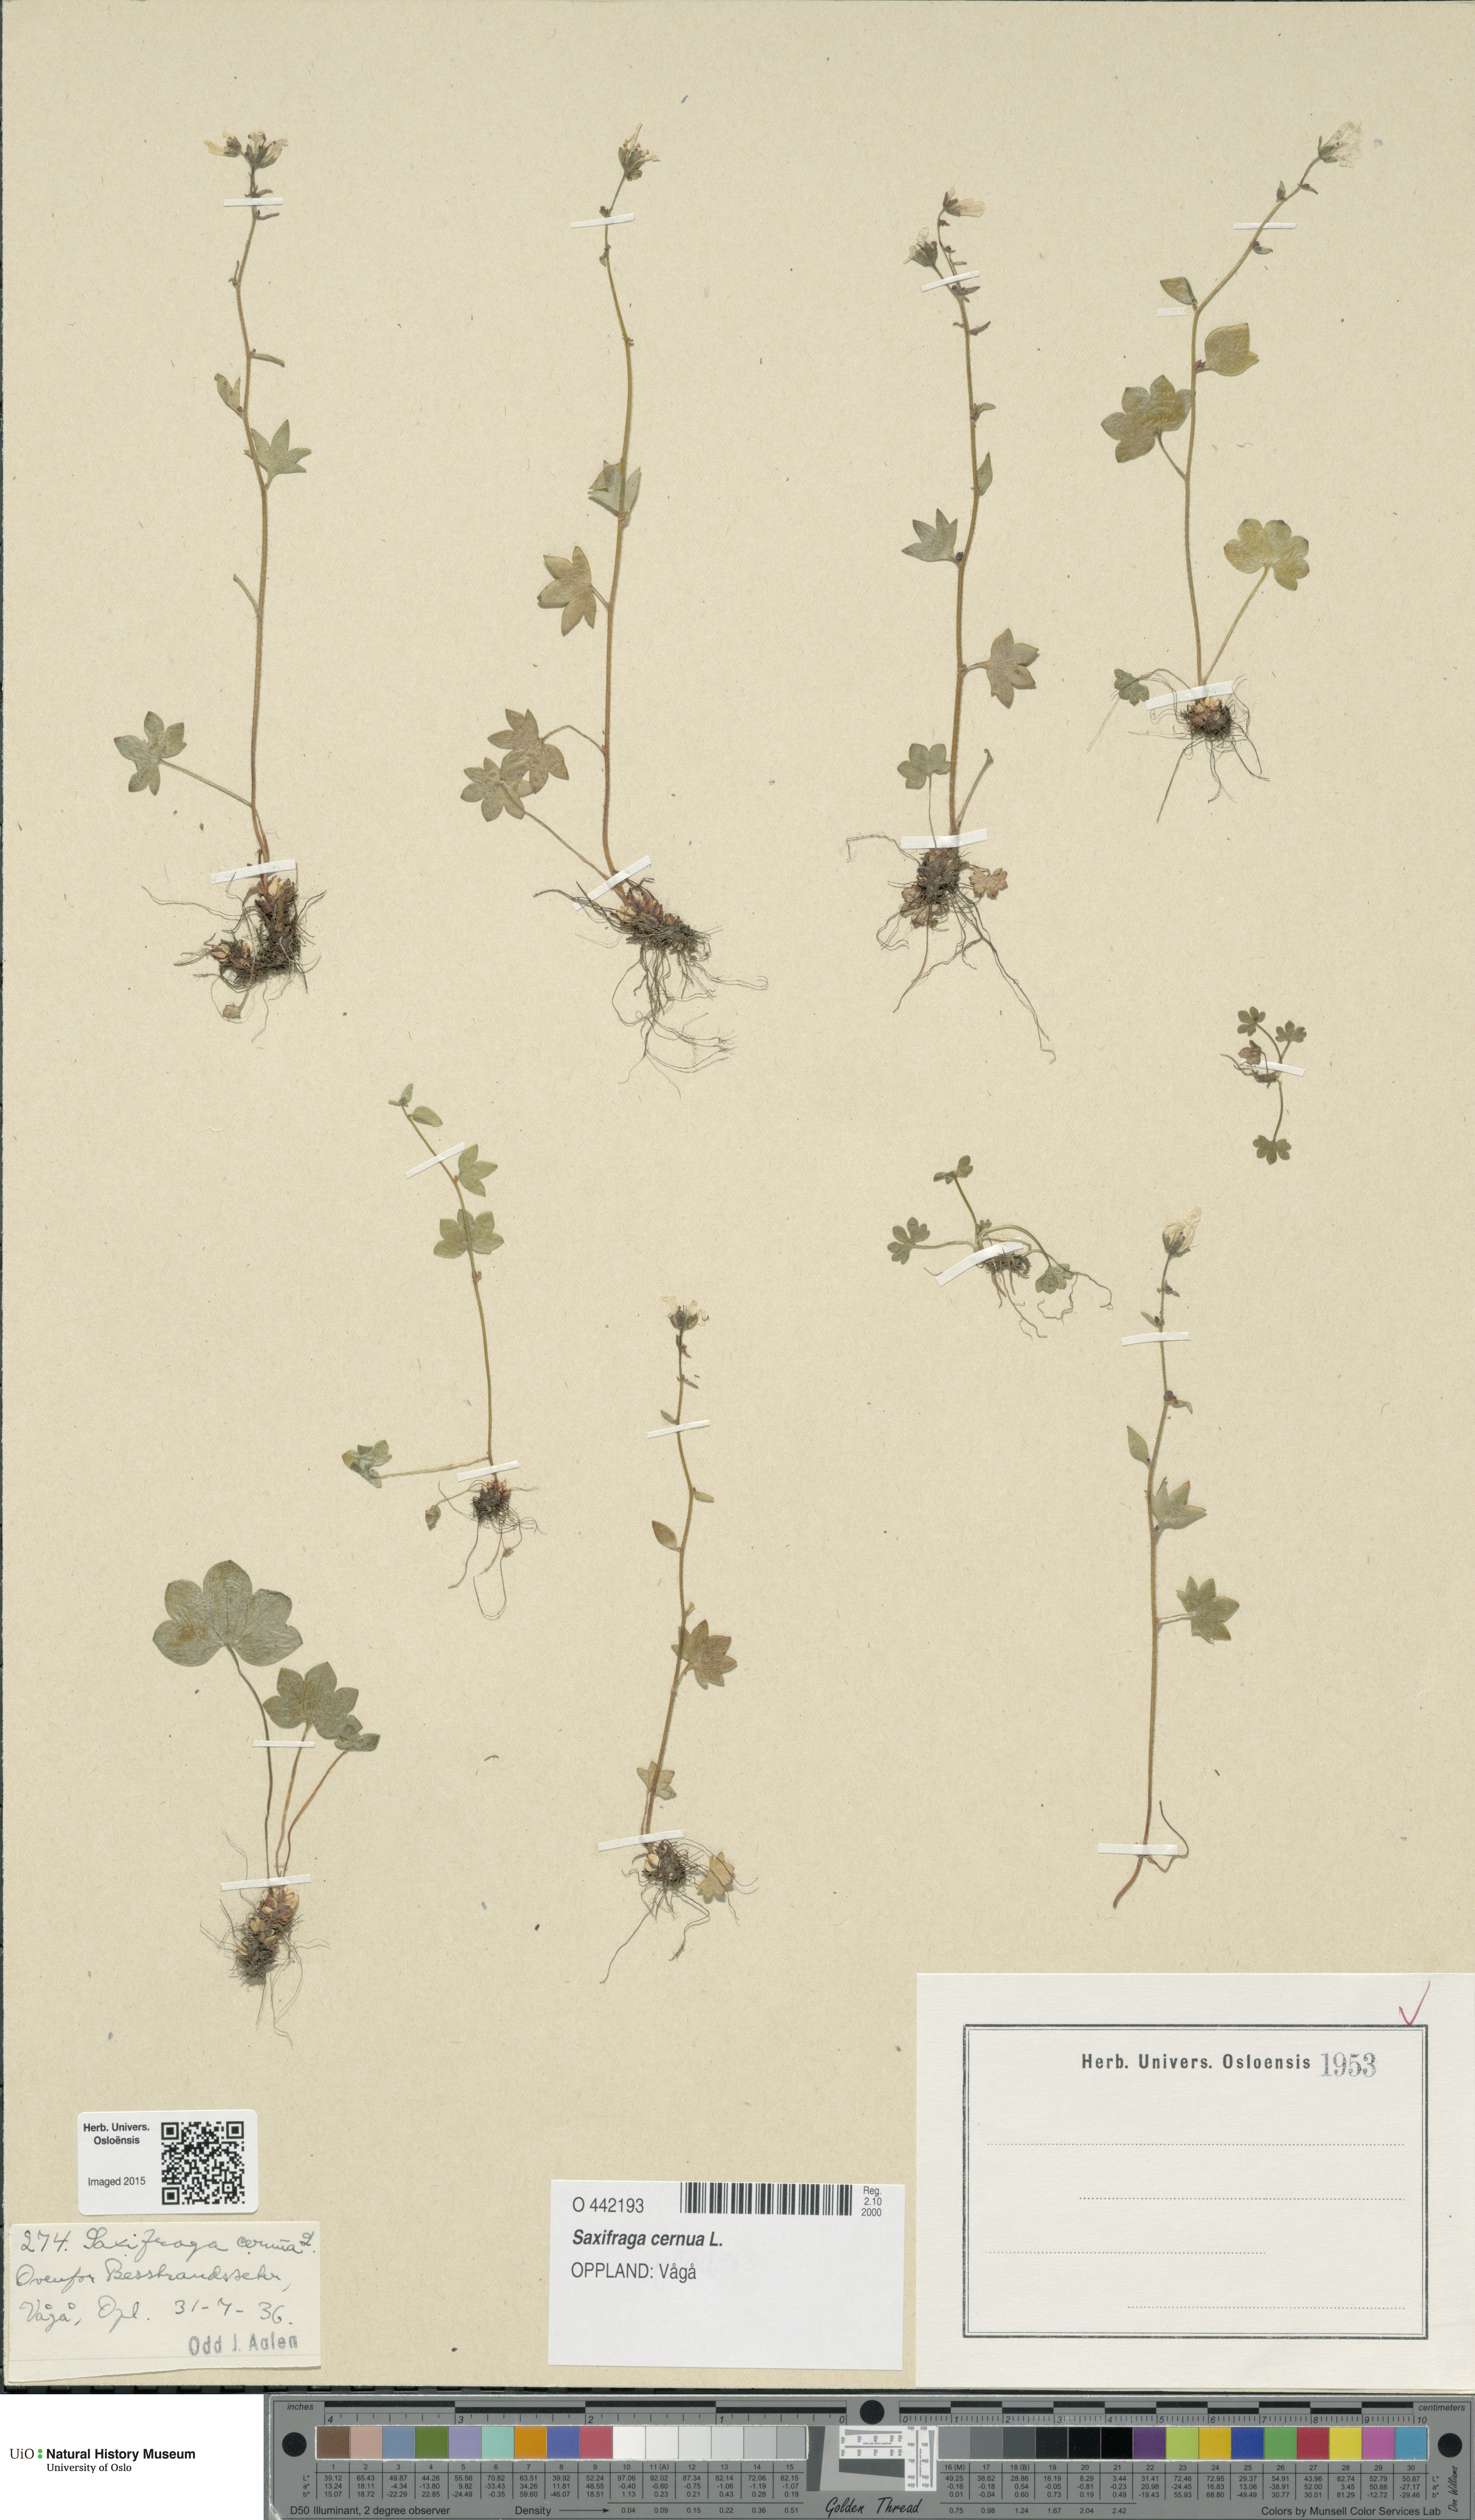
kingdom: Plantae
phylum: Tracheophyta
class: Magnoliopsida
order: Saxifragales
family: Saxifragaceae
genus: Saxifraga
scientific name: Saxifraga cernua
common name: Drooping saxifrage
